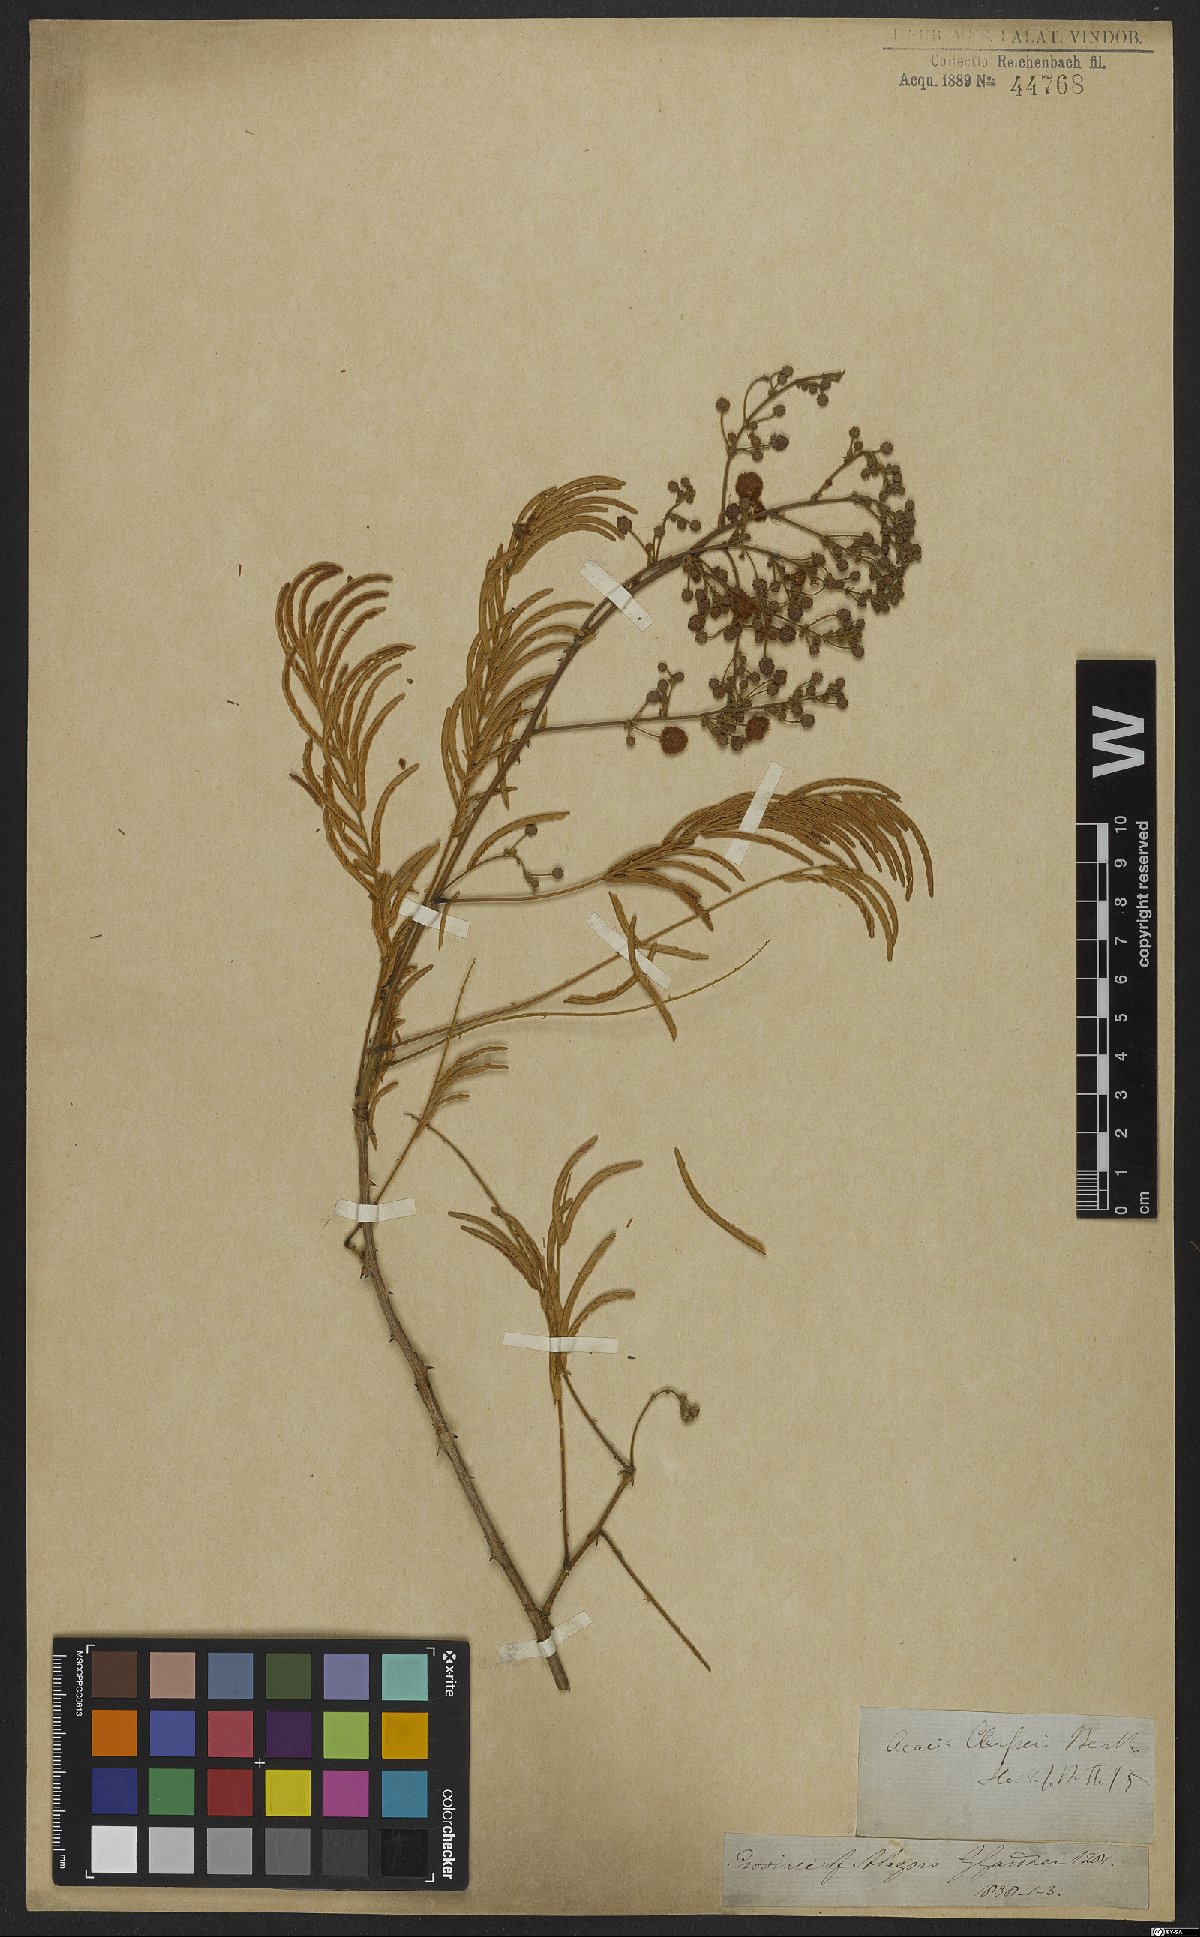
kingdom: Plantae
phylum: Tracheophyta
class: Magnoliopsida
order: Fabales
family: Fabaceae
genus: Senegalia
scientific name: Senegalia paniculata
